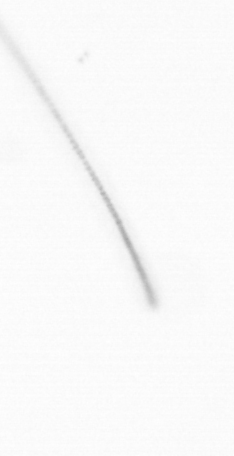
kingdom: Chromista
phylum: Ochrophyta
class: Bacillariophyceae
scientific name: Bacillariophyceae
